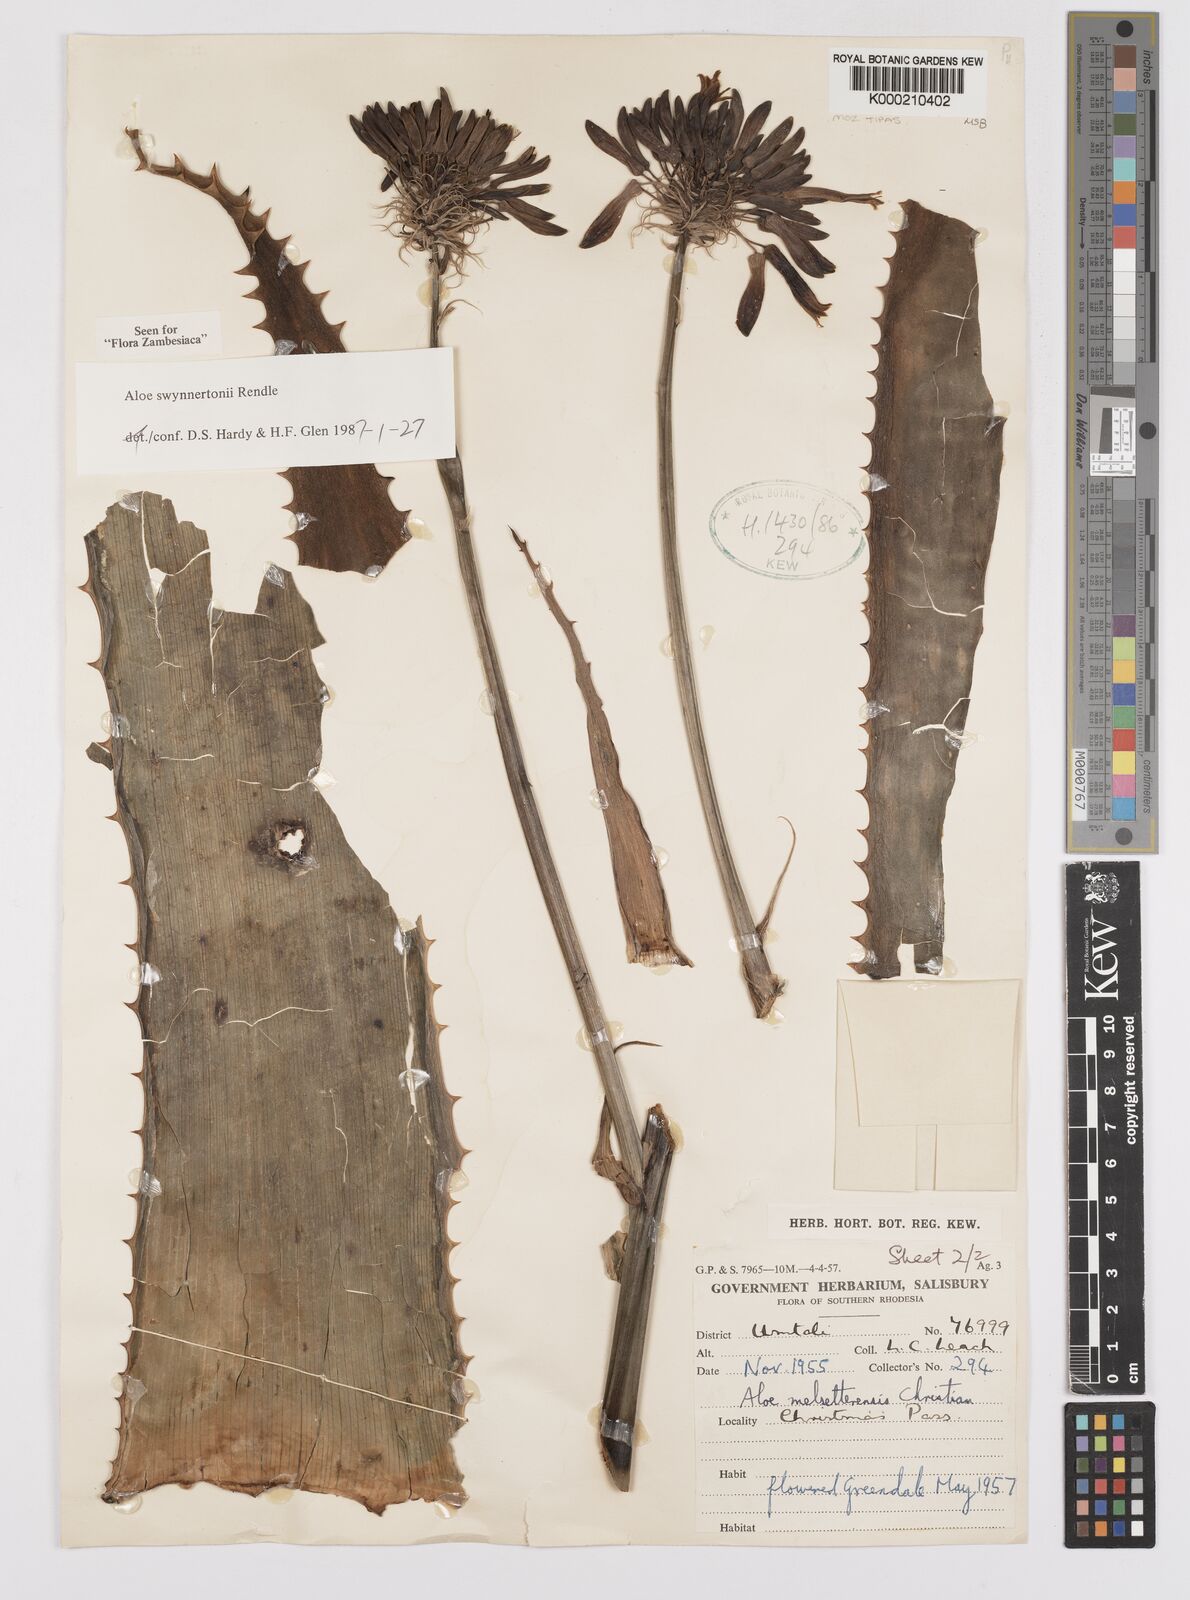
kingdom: Plantae
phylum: Tracheophyta
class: Liliopsida
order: Asparagales
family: Asphodelaceae
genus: Aloe
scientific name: Aloe swynnertonii
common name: Swynnerton's aloe
